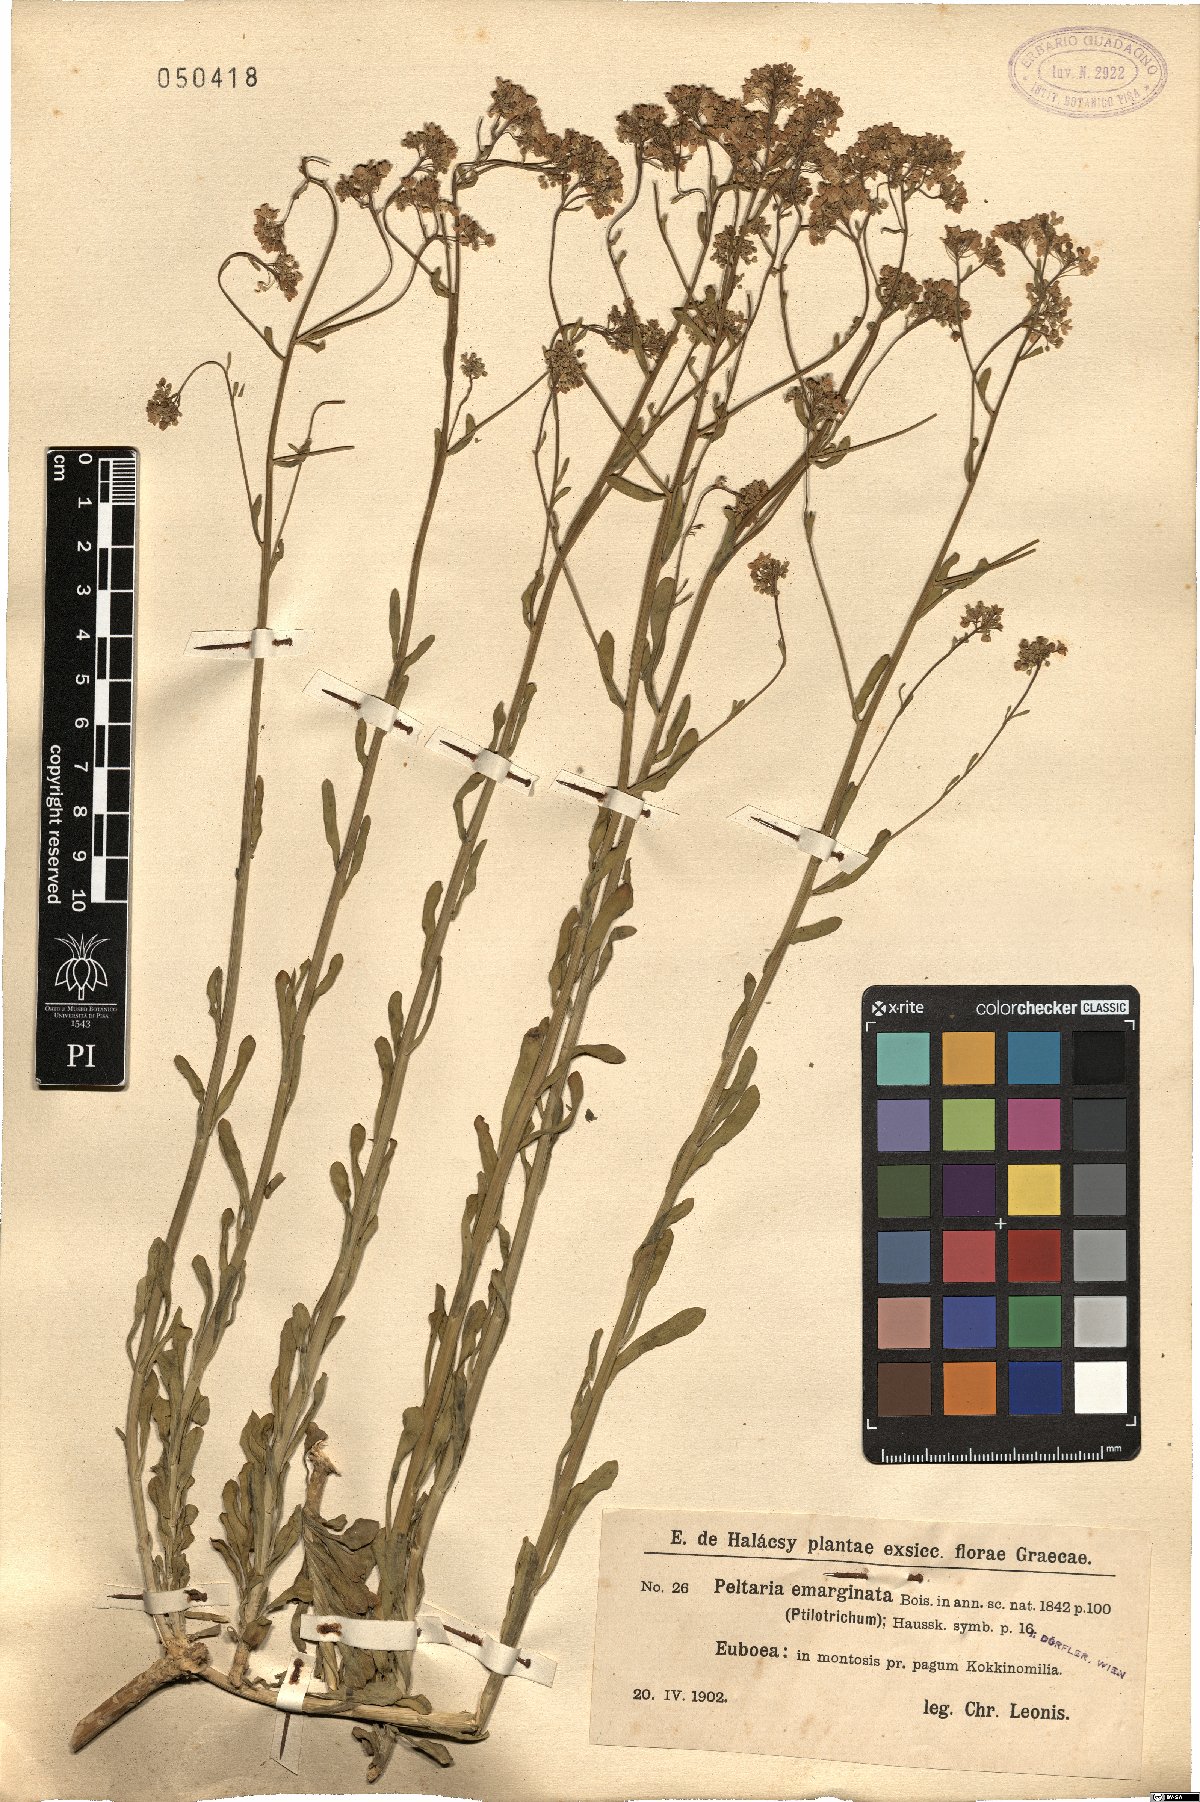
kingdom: Plantae
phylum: Tracheophyta
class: Magnoliopsida
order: Brassicales
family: Brassicaceae
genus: Bornmuellera
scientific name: Bornmuellera emarginata
